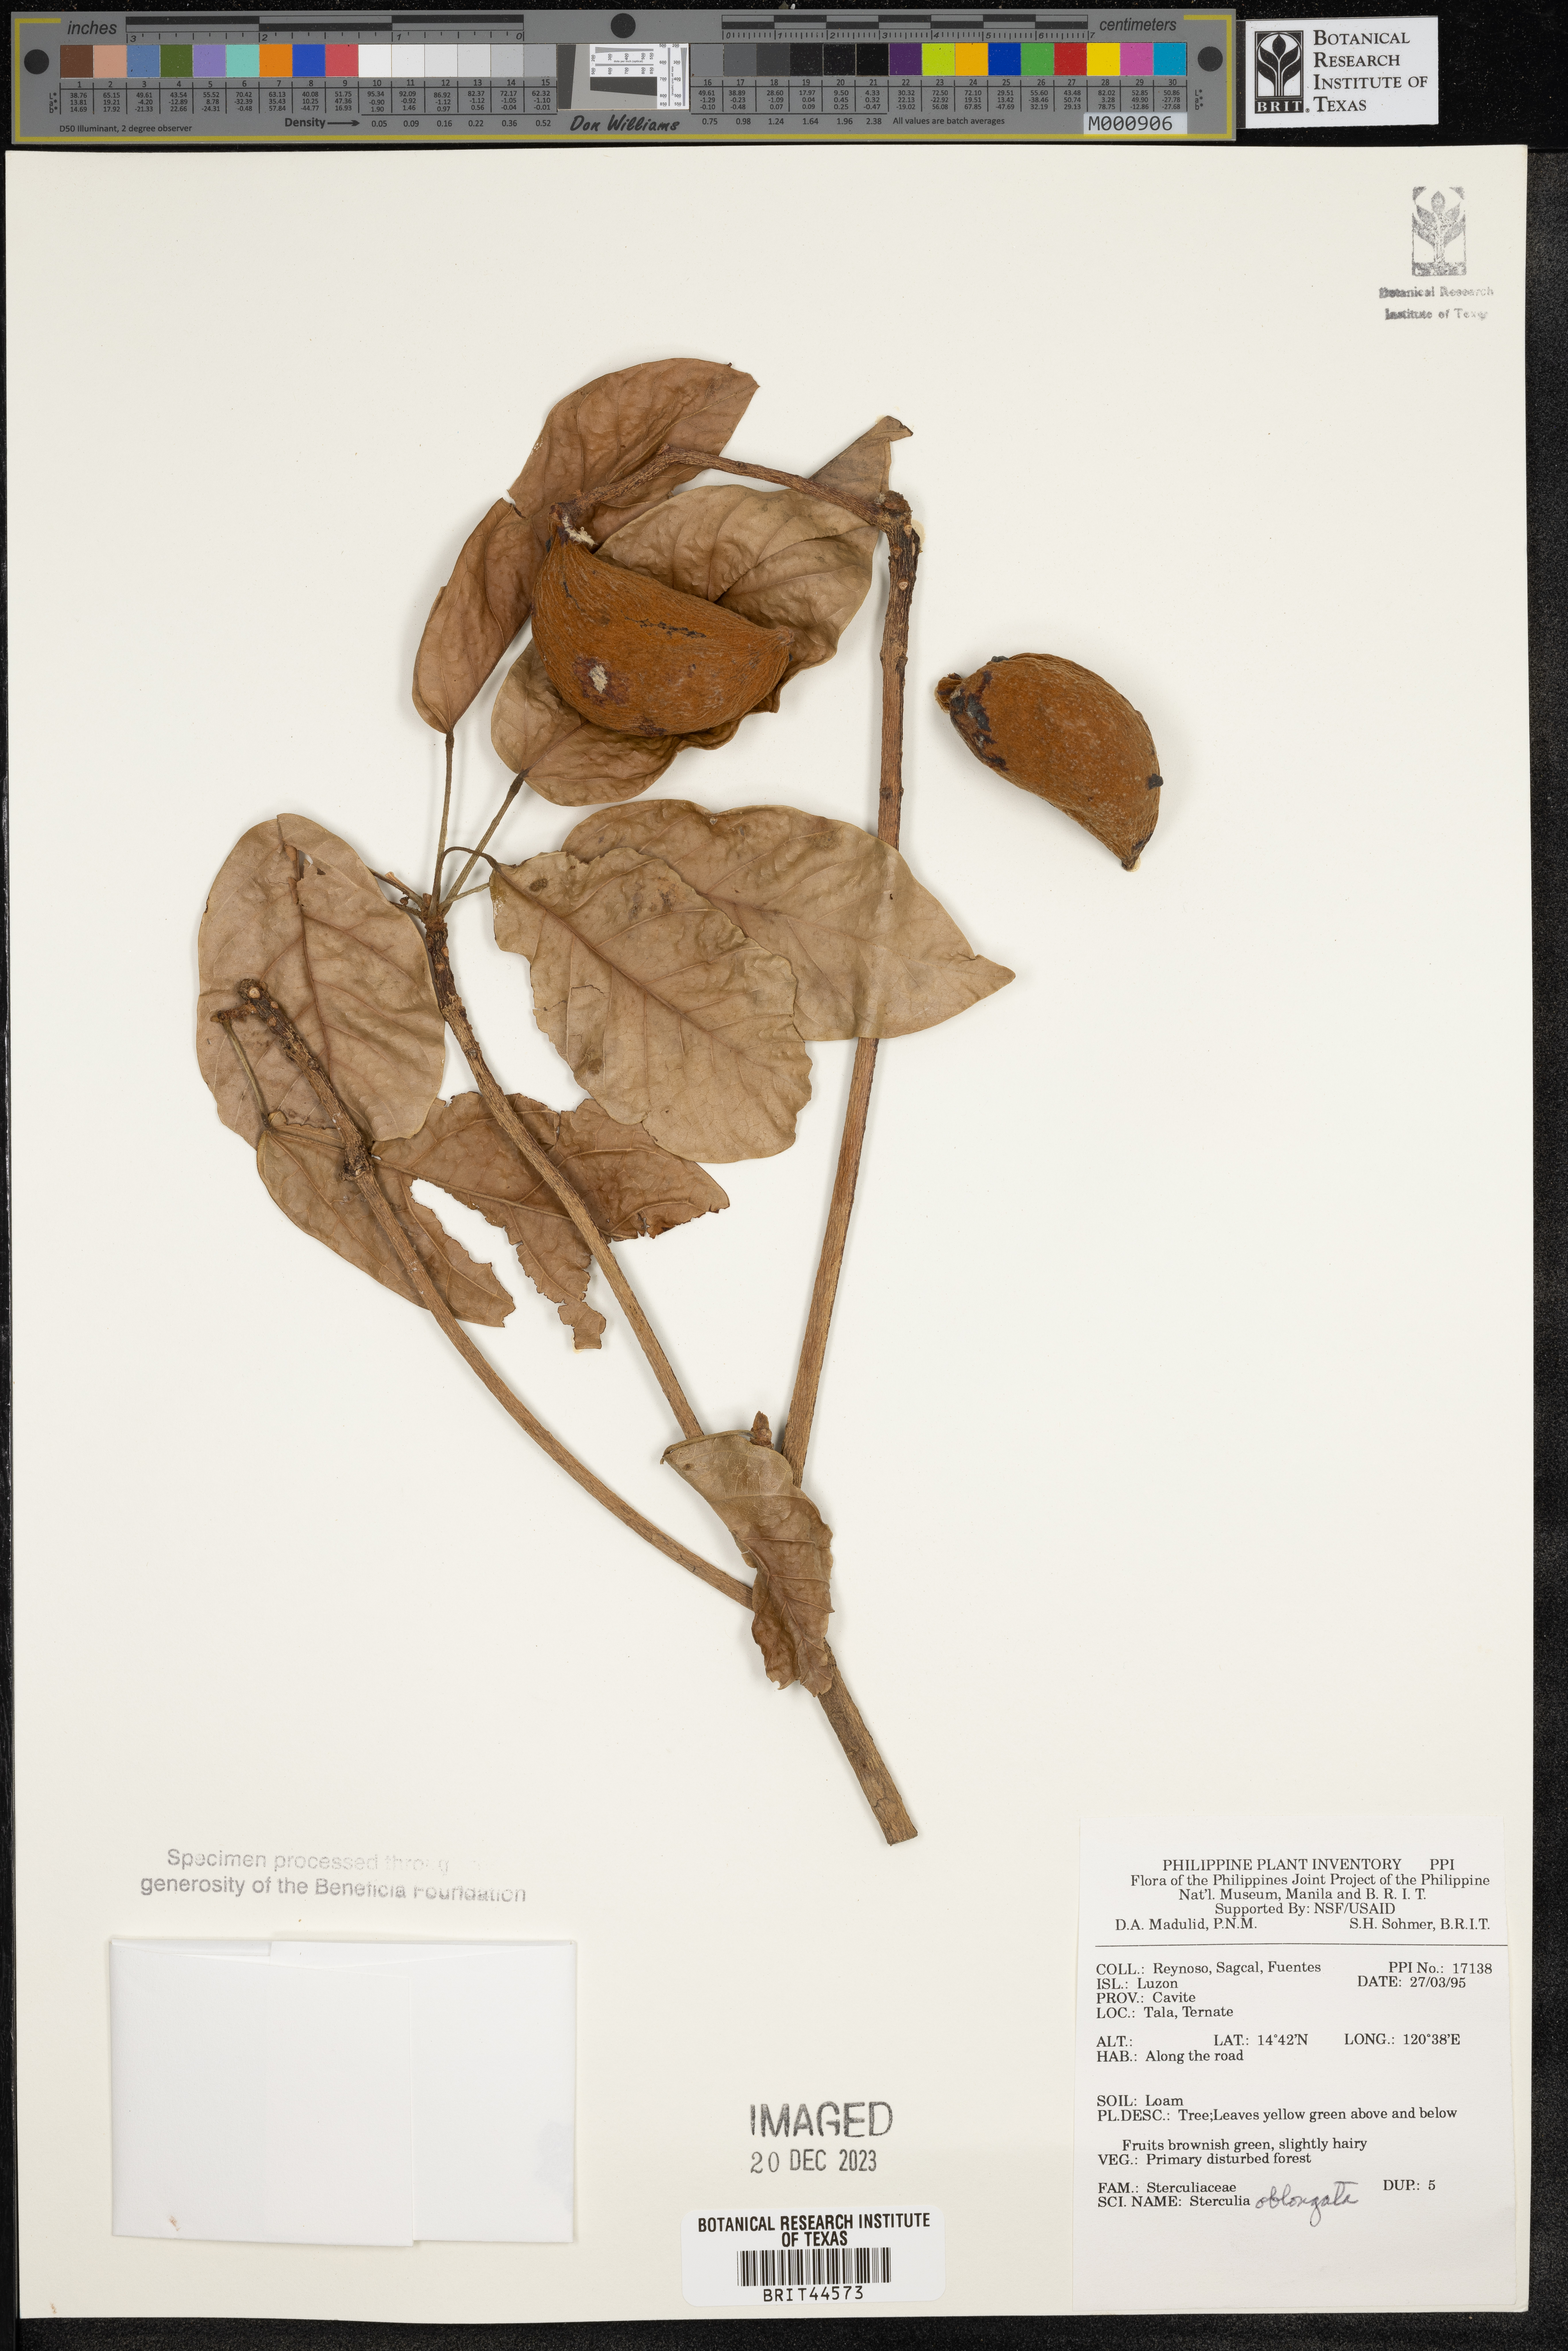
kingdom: Plantae
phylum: Tracheophyta
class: Magnoliopsida
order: Malvales
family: Malvaceae
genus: Sterculia
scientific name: Sterculia oblongata
